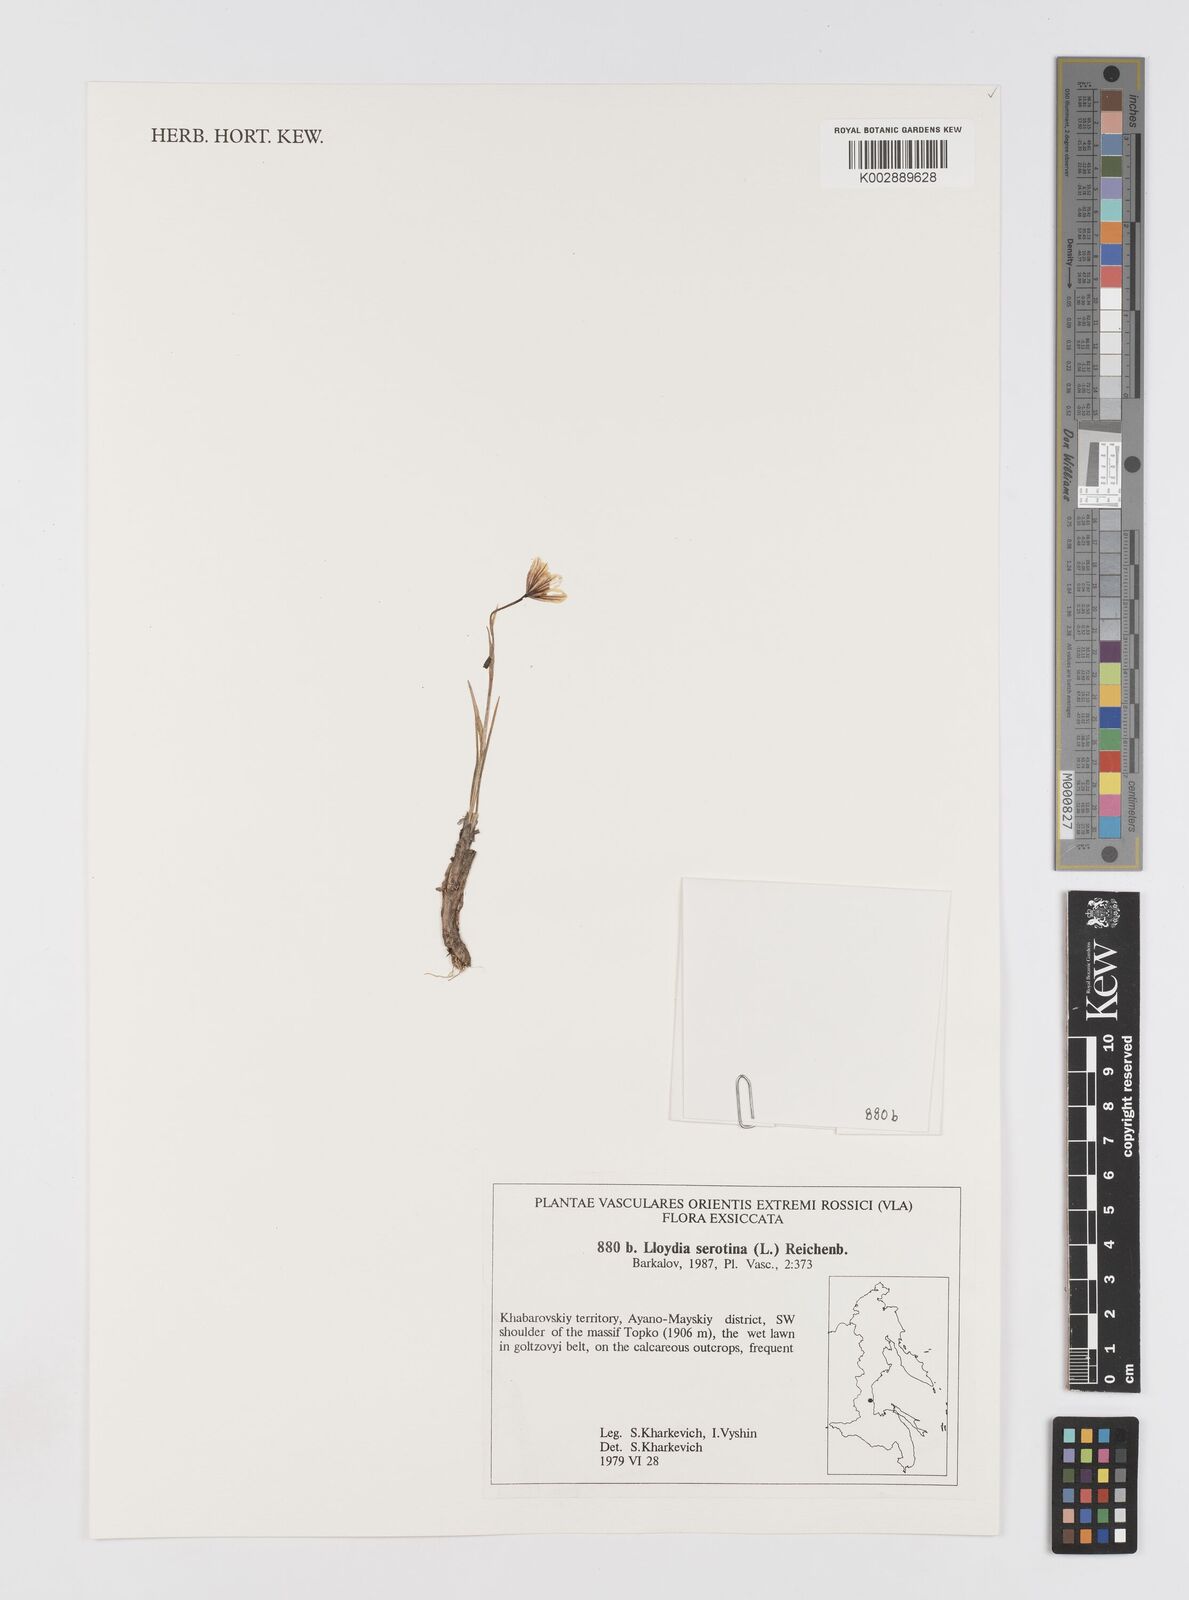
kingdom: Plantae
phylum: Tracheophyta
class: Liliopsida
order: Liliales
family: Liliaceae
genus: Gagea
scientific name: Gagea serotina
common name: Snowdon lily
